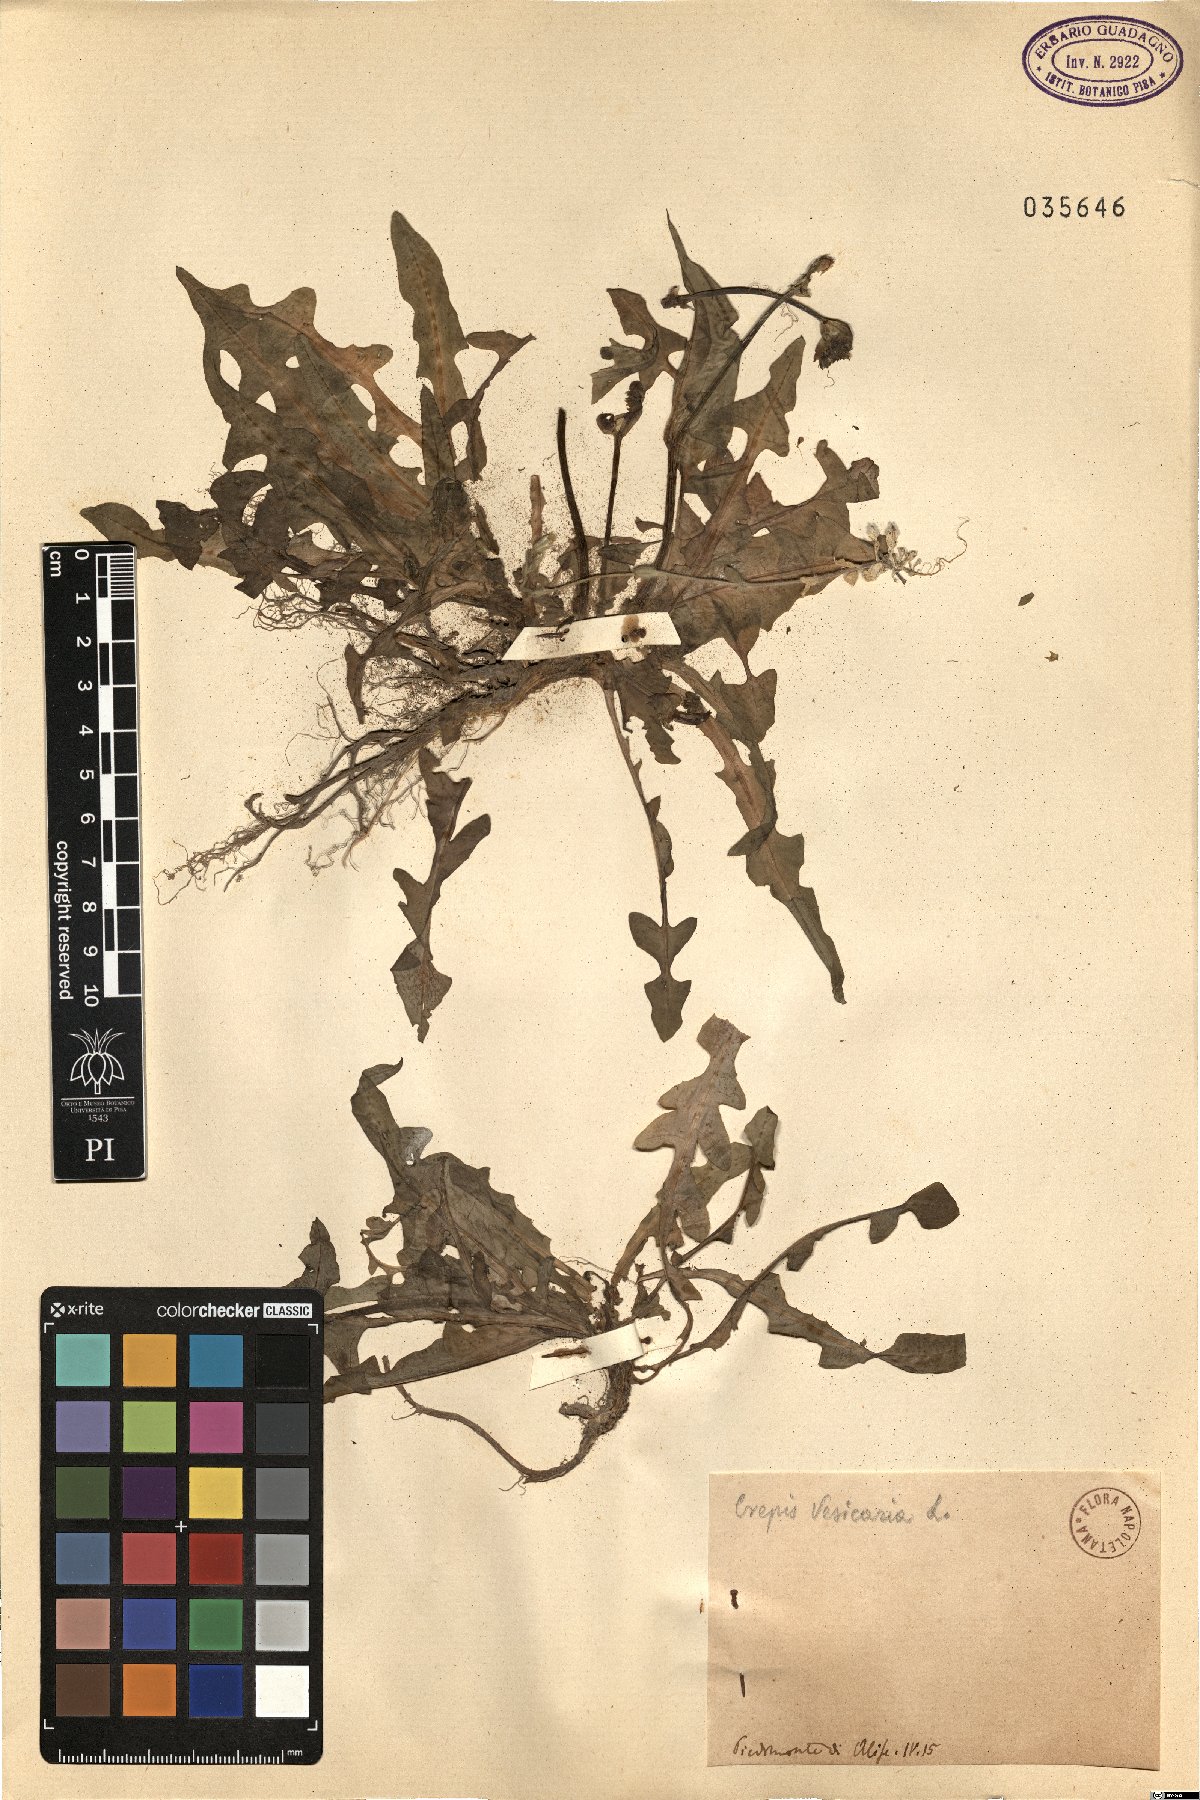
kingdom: Plantae
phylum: Tracheophyta
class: Magnoliopsida
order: Asterales
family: Asteraceae
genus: Crepis
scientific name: Crepis vesicaria
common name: Beaked hawksbeard
